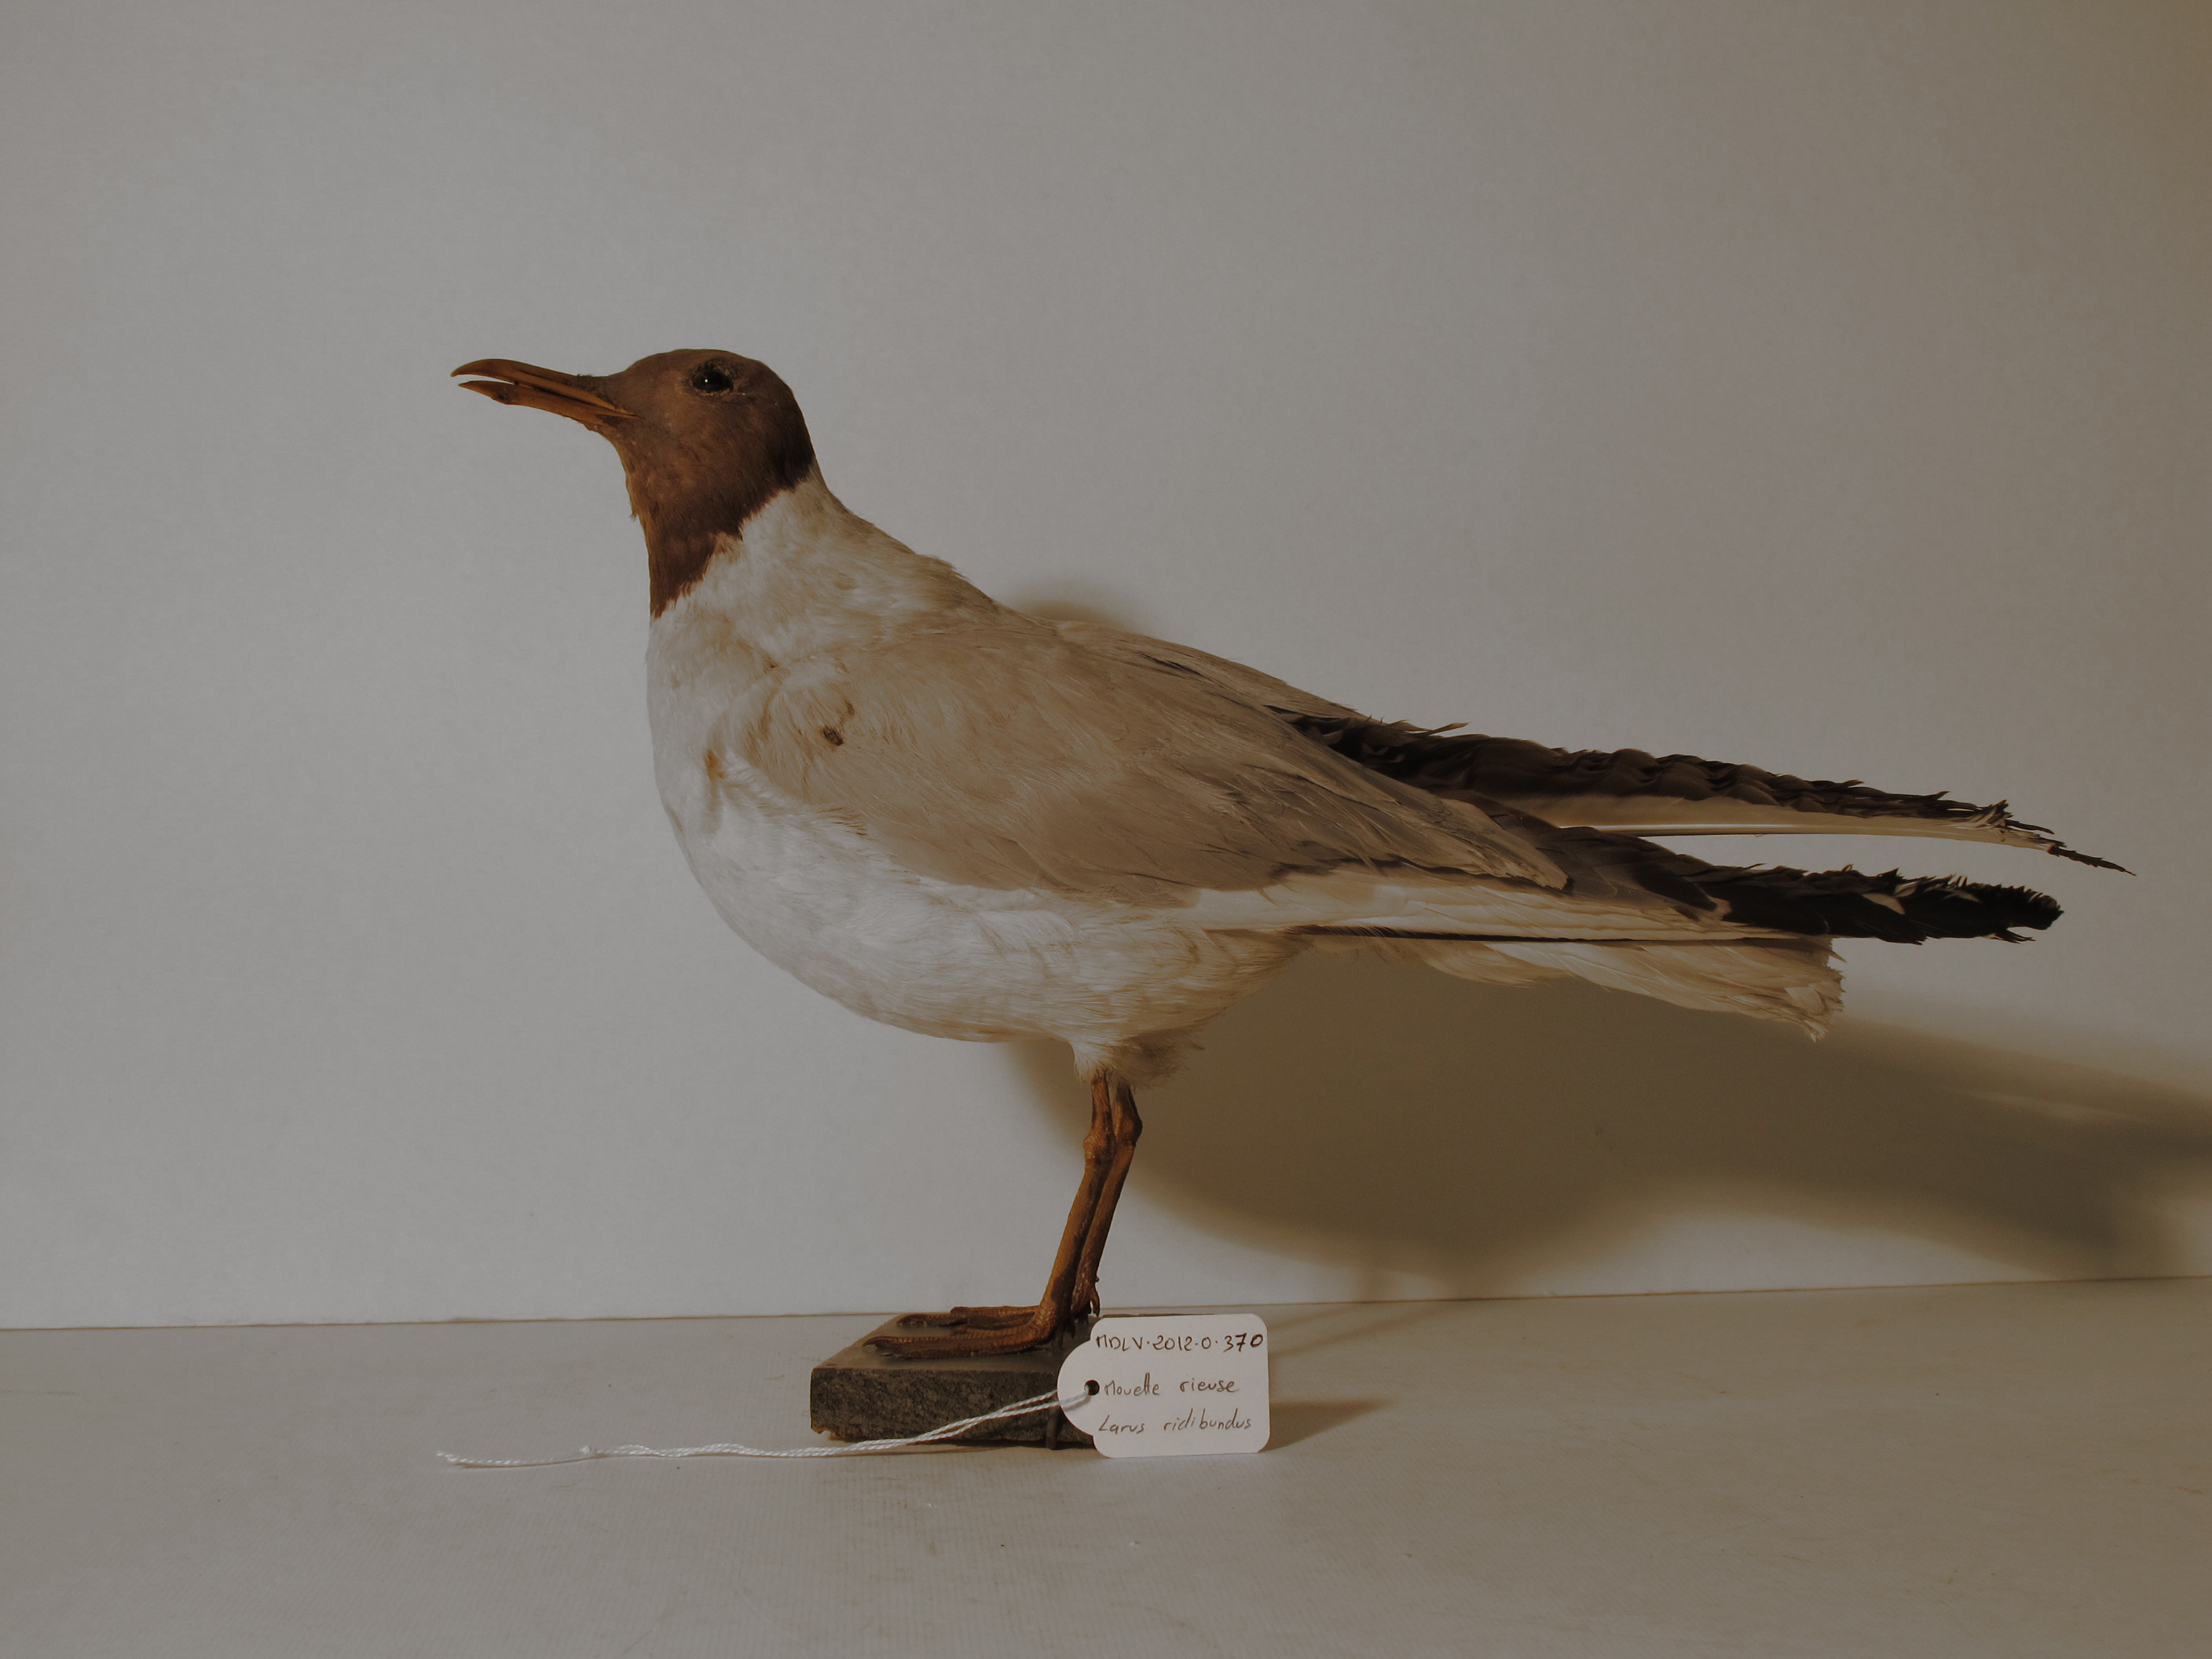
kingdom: Animalia
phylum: Chordata
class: Aves
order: Charadriiformes
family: Laridae
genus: Chroicocephalus
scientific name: Chroicocephalus ridibundus
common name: Common Black-headed Gull
